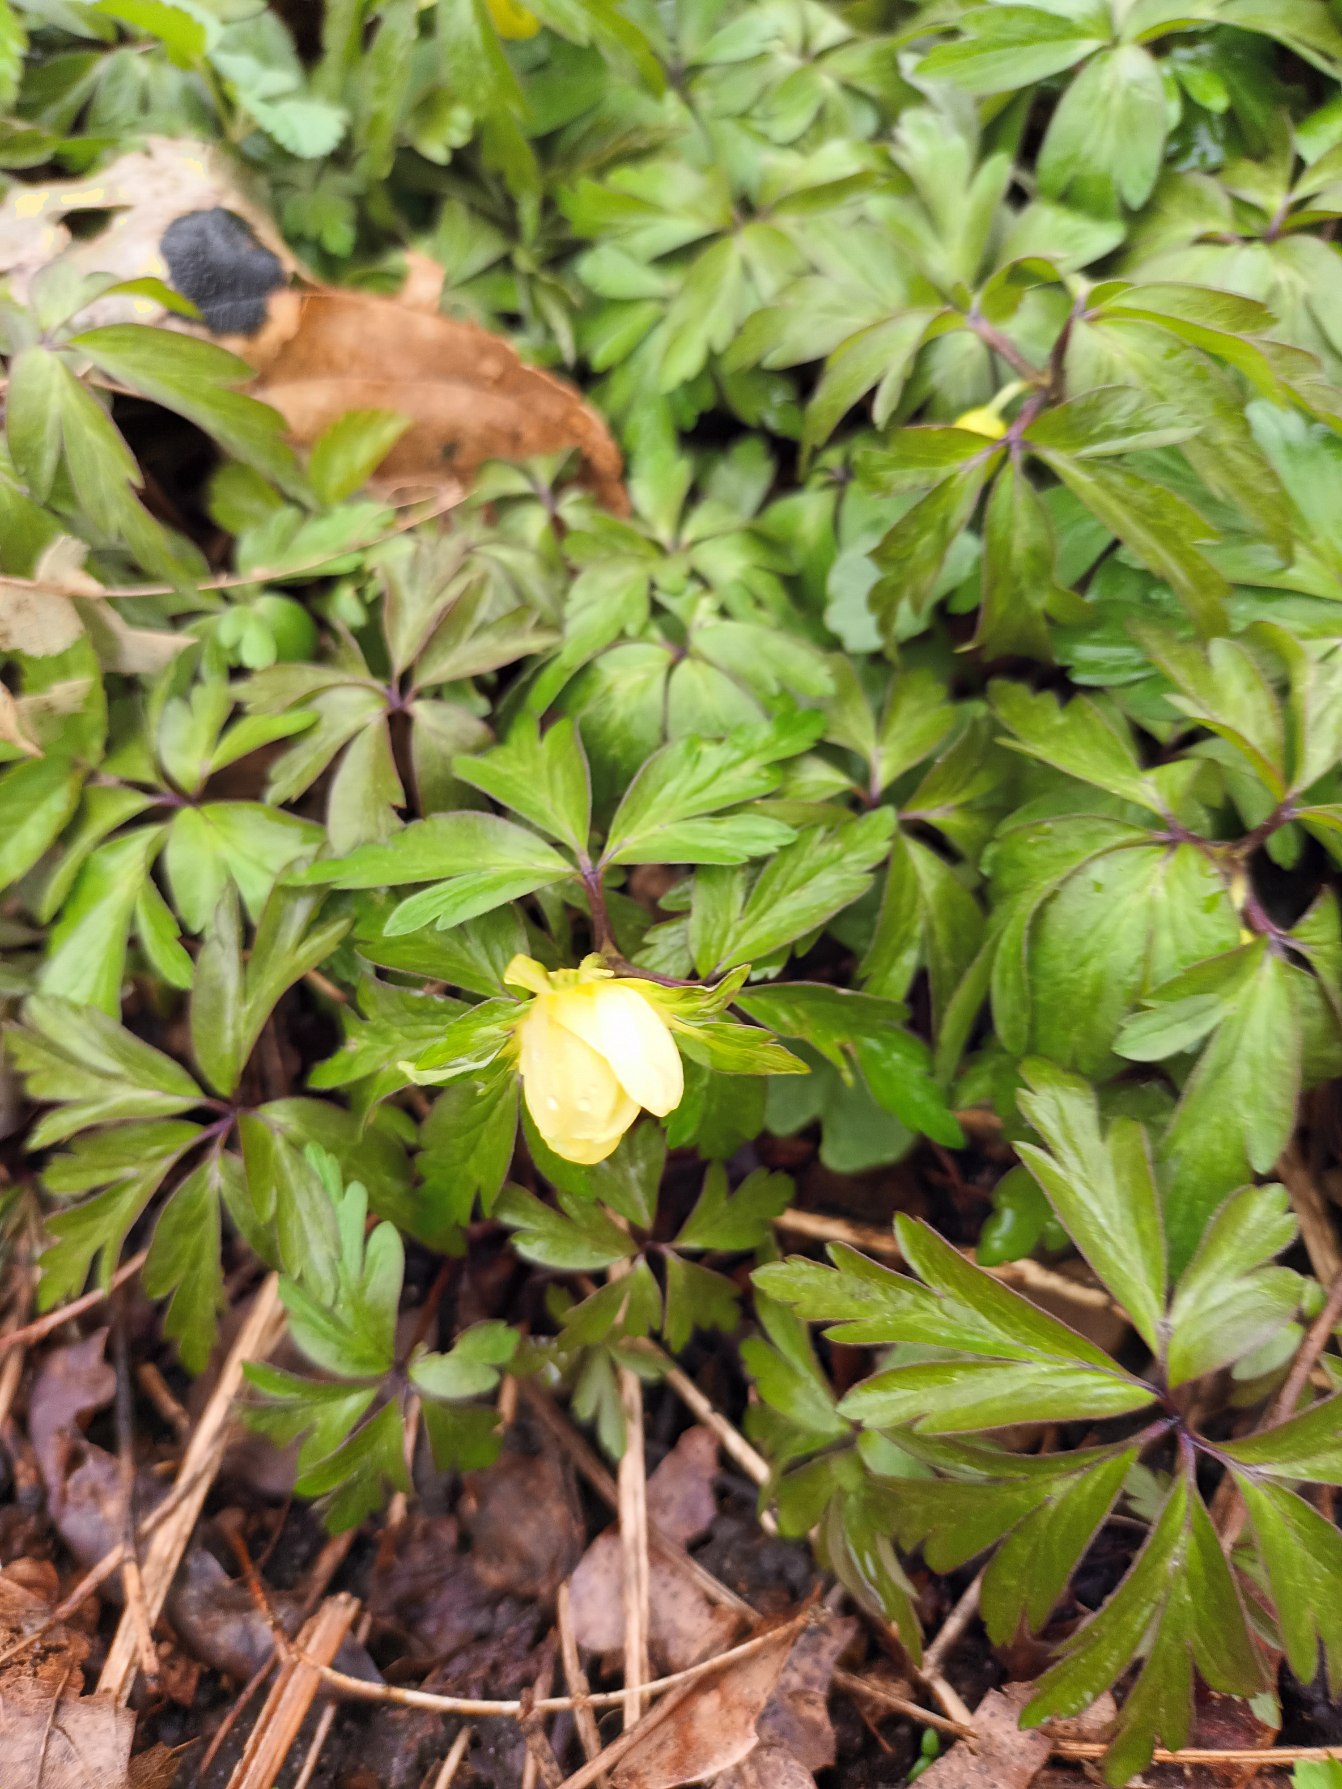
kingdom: Plantae
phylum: Tracheophyta
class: Magnoliopsida
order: Ranunculales
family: Ranunculaceae
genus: Anemone
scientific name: Anemone
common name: Svovlgul anemone
